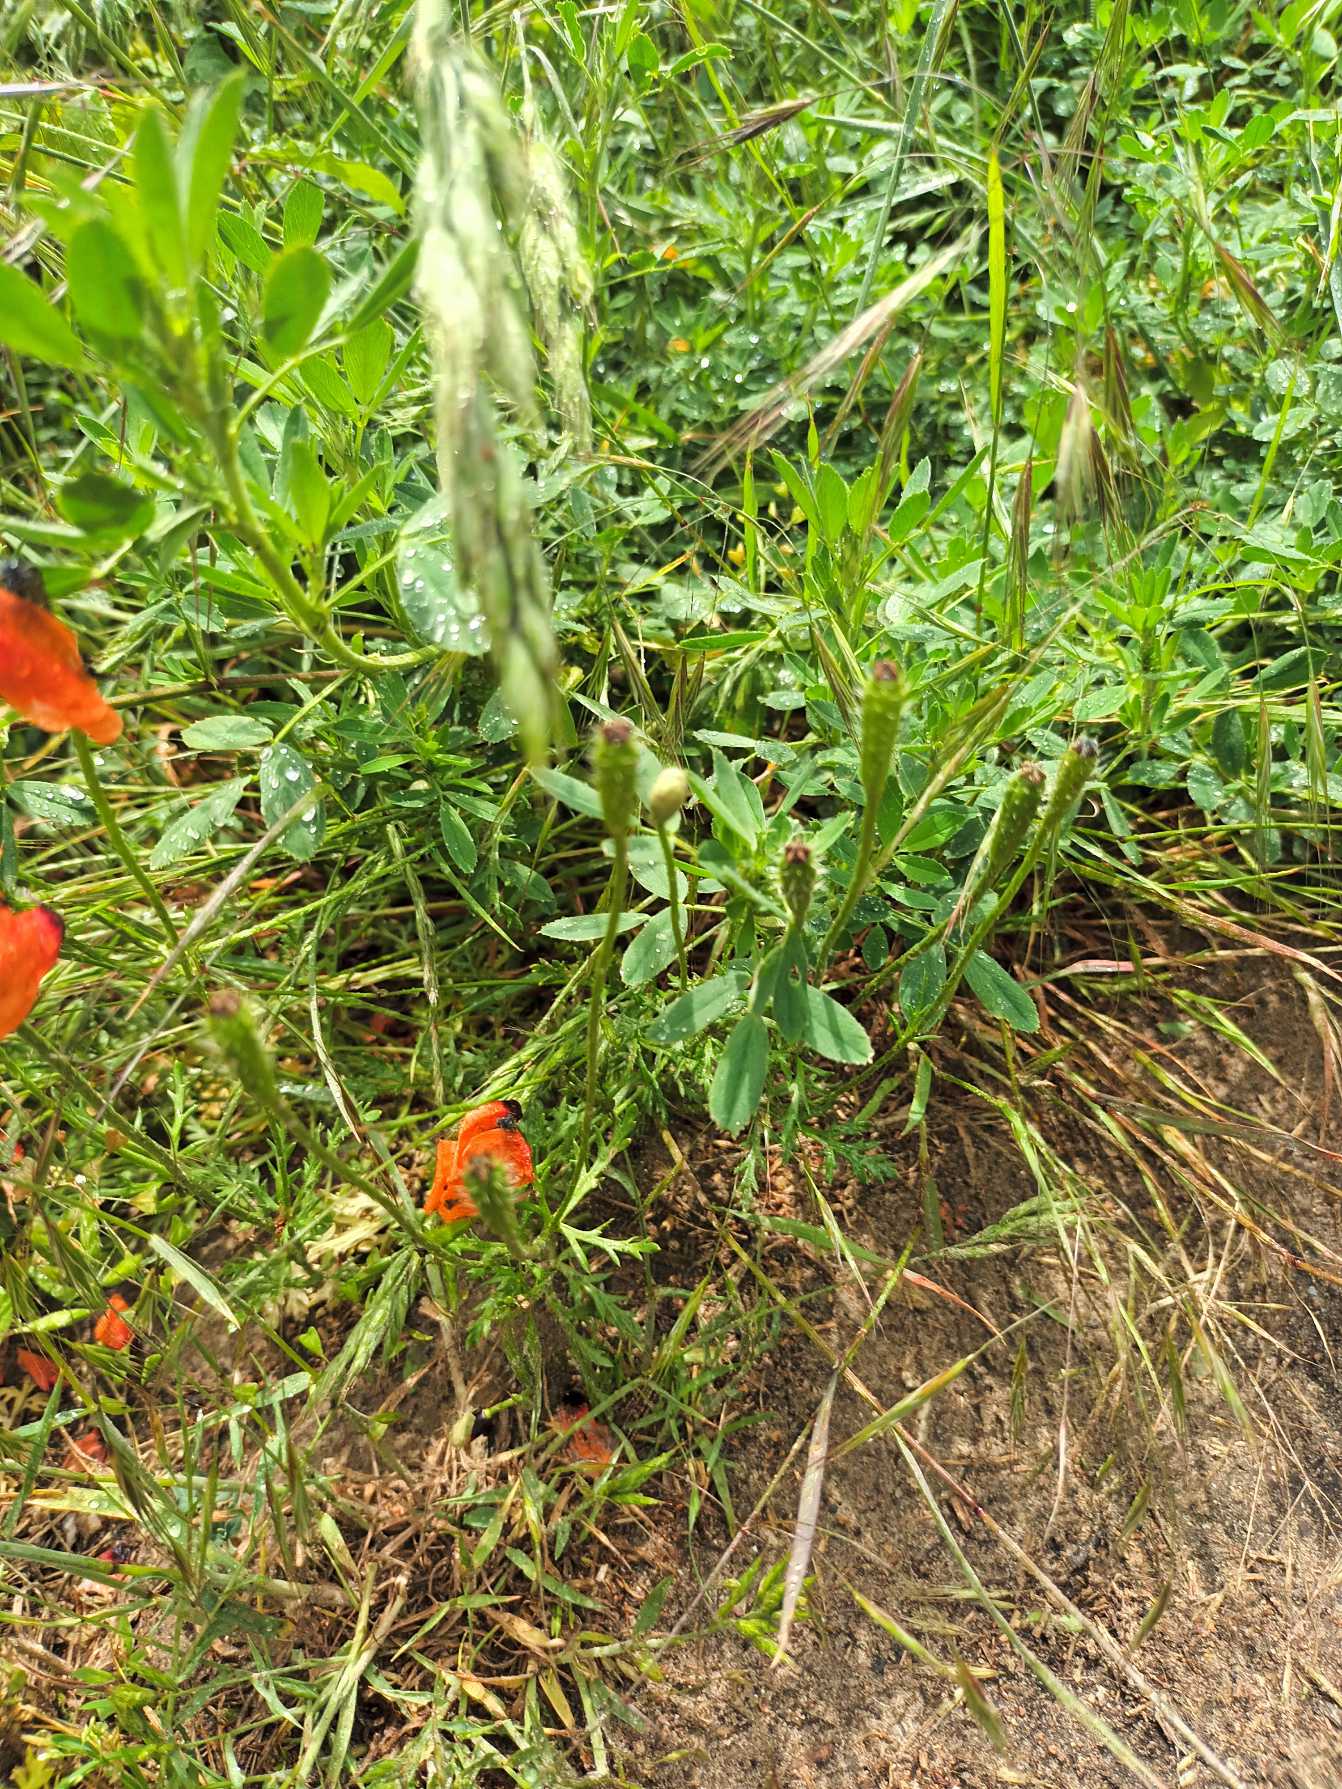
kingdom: Plantae
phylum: Tracheophyta
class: Magnoliopsida
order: Ranunculales
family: Papaveraceae
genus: Roemeria
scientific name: Roemeria argemone
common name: Kølle-valmue
